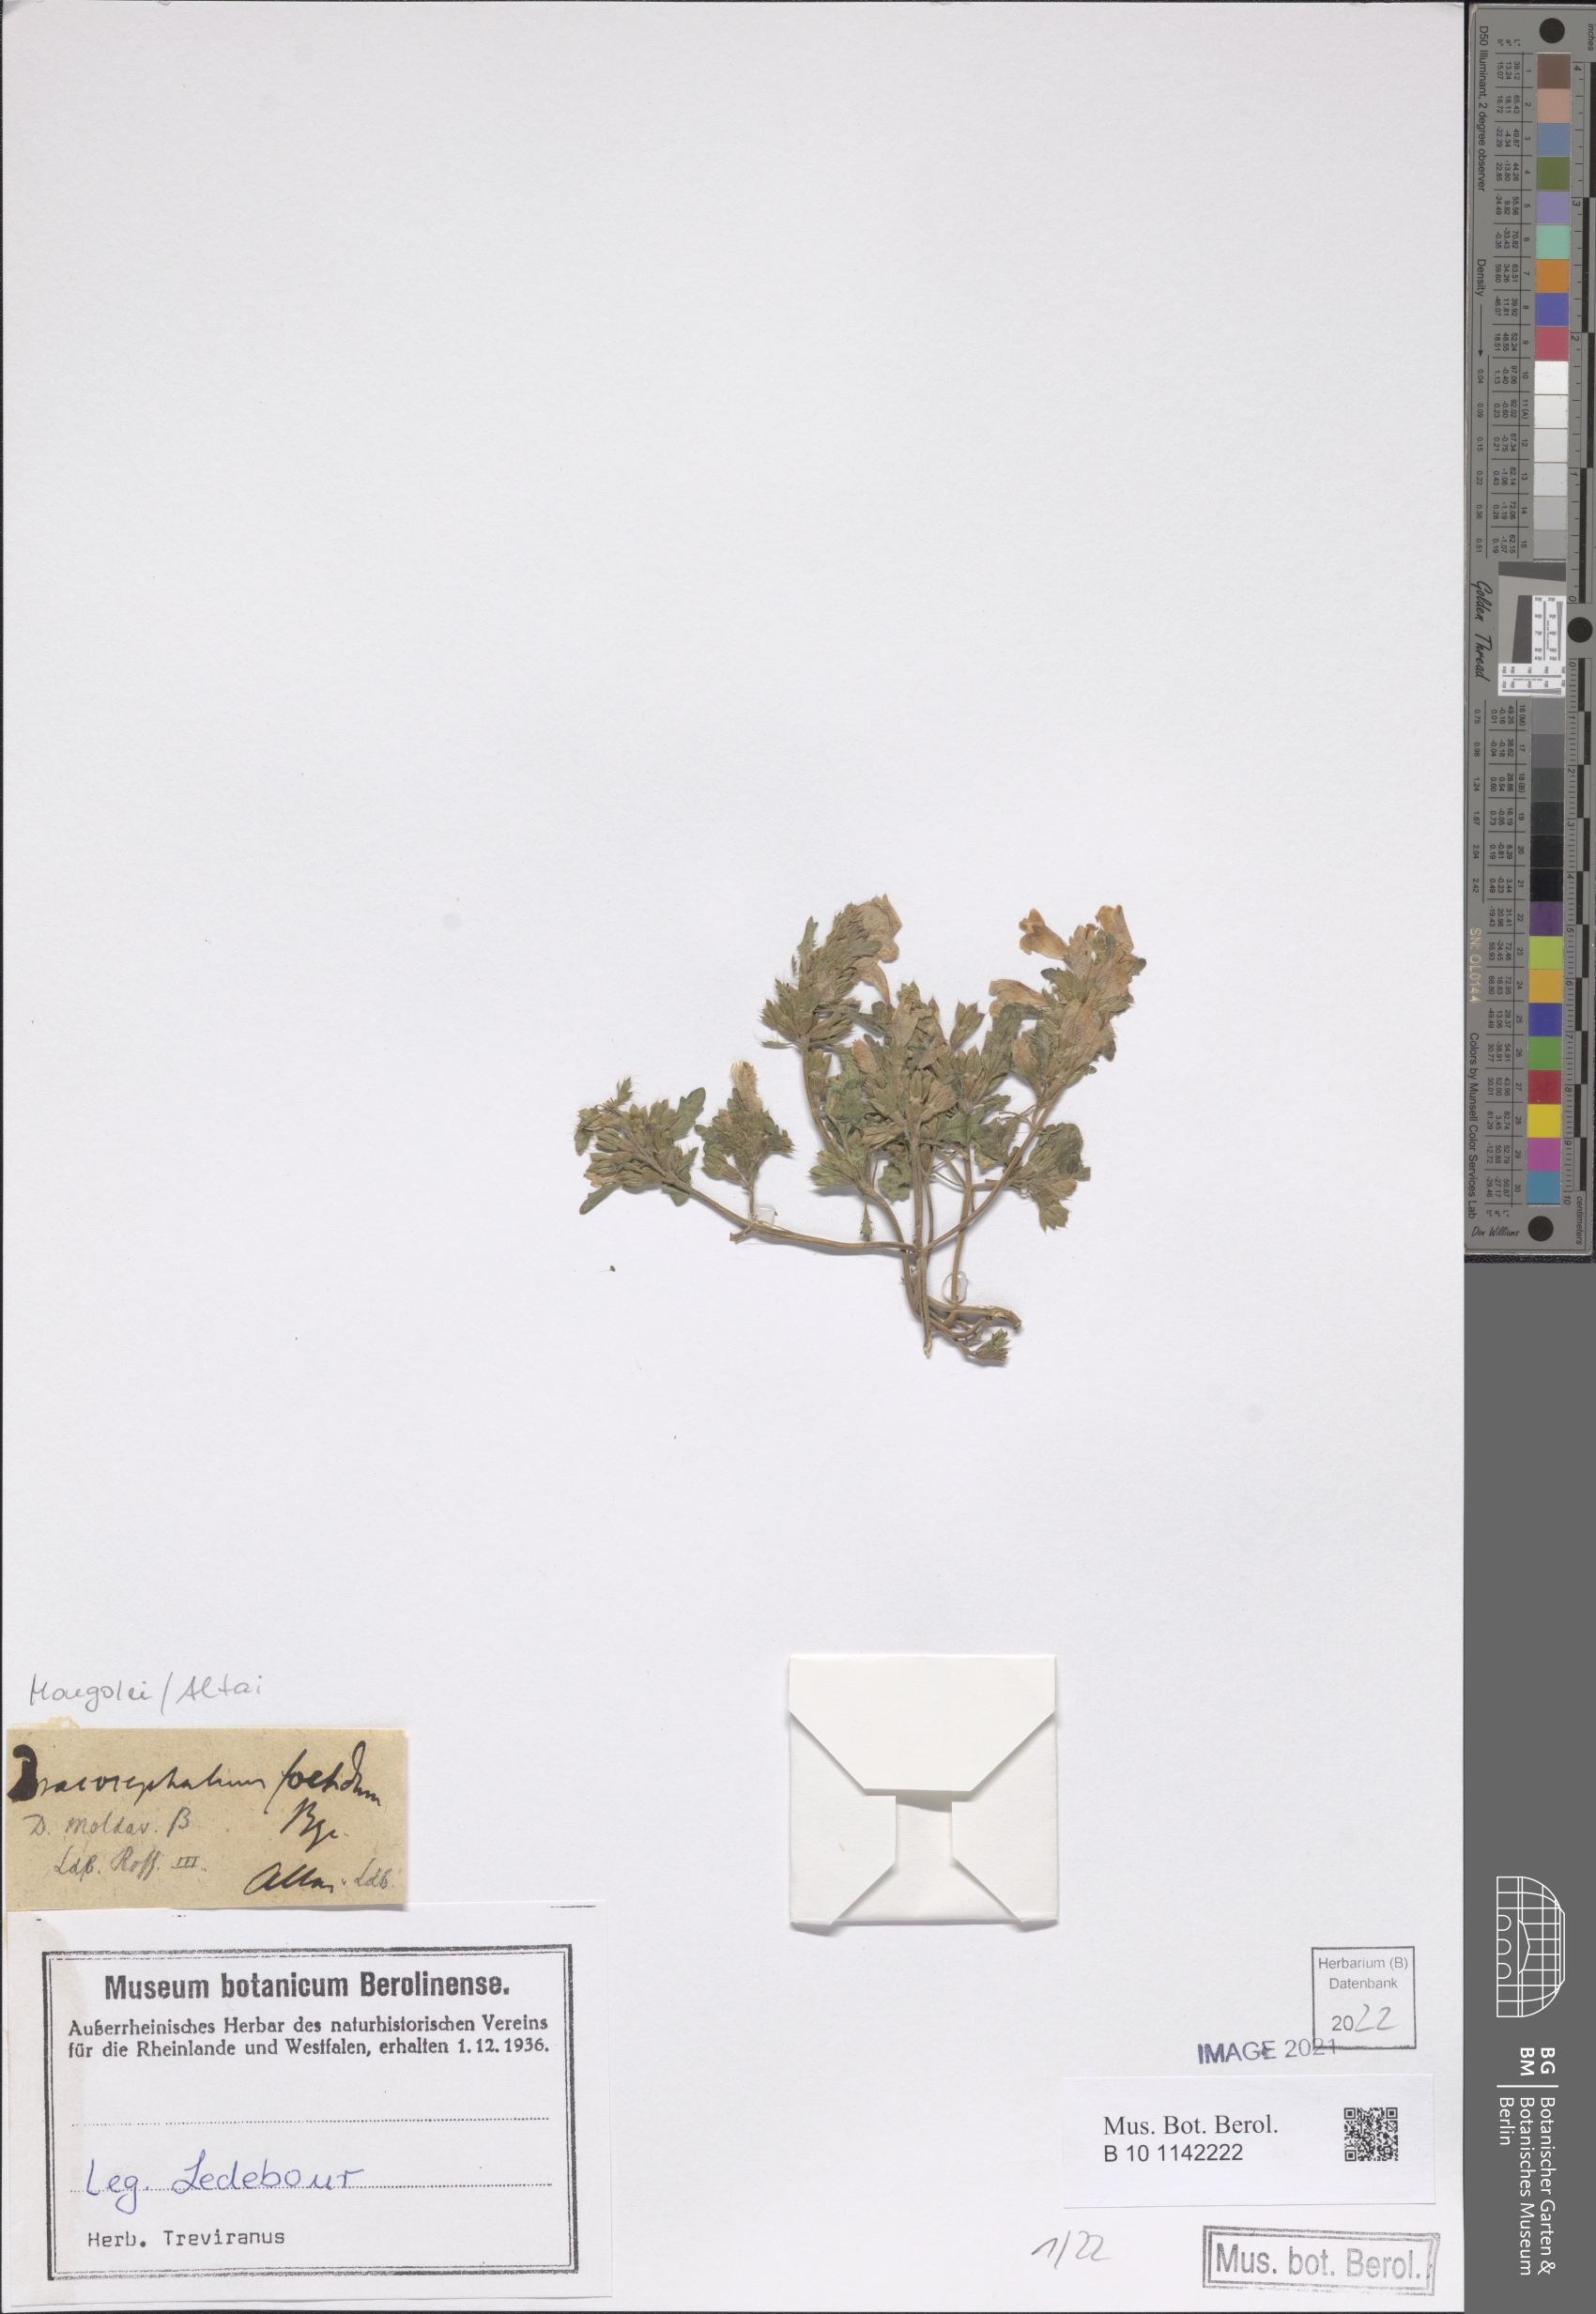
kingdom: Plantae
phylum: Tracheophyta
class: Magnoliopsida
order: Lamiales
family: Lamiaceae
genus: Dracocephalum
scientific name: Dracocephalum moldavica
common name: Moldavian dragonhead
